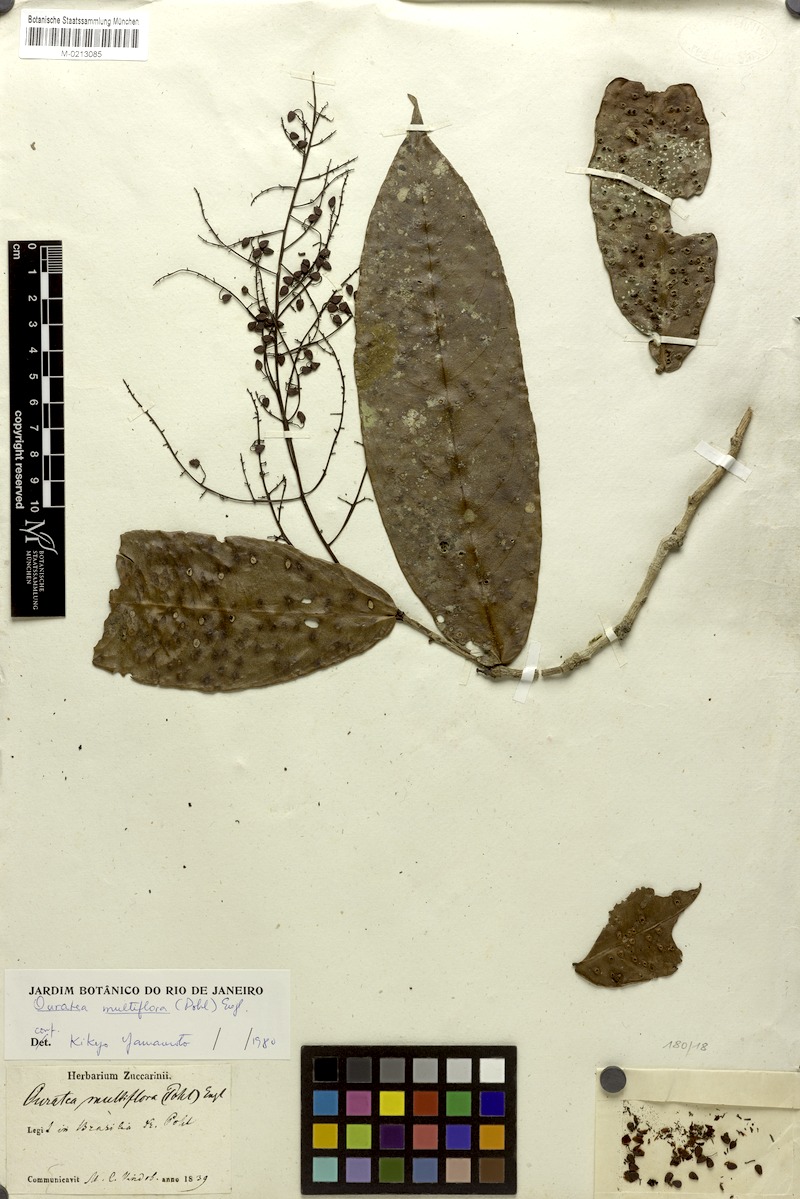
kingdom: Plantae
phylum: Tracheophyta
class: Magnoliopsida
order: Malpighiales
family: Ochnaceae
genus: Ouratea
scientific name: Ouratea multiflora
